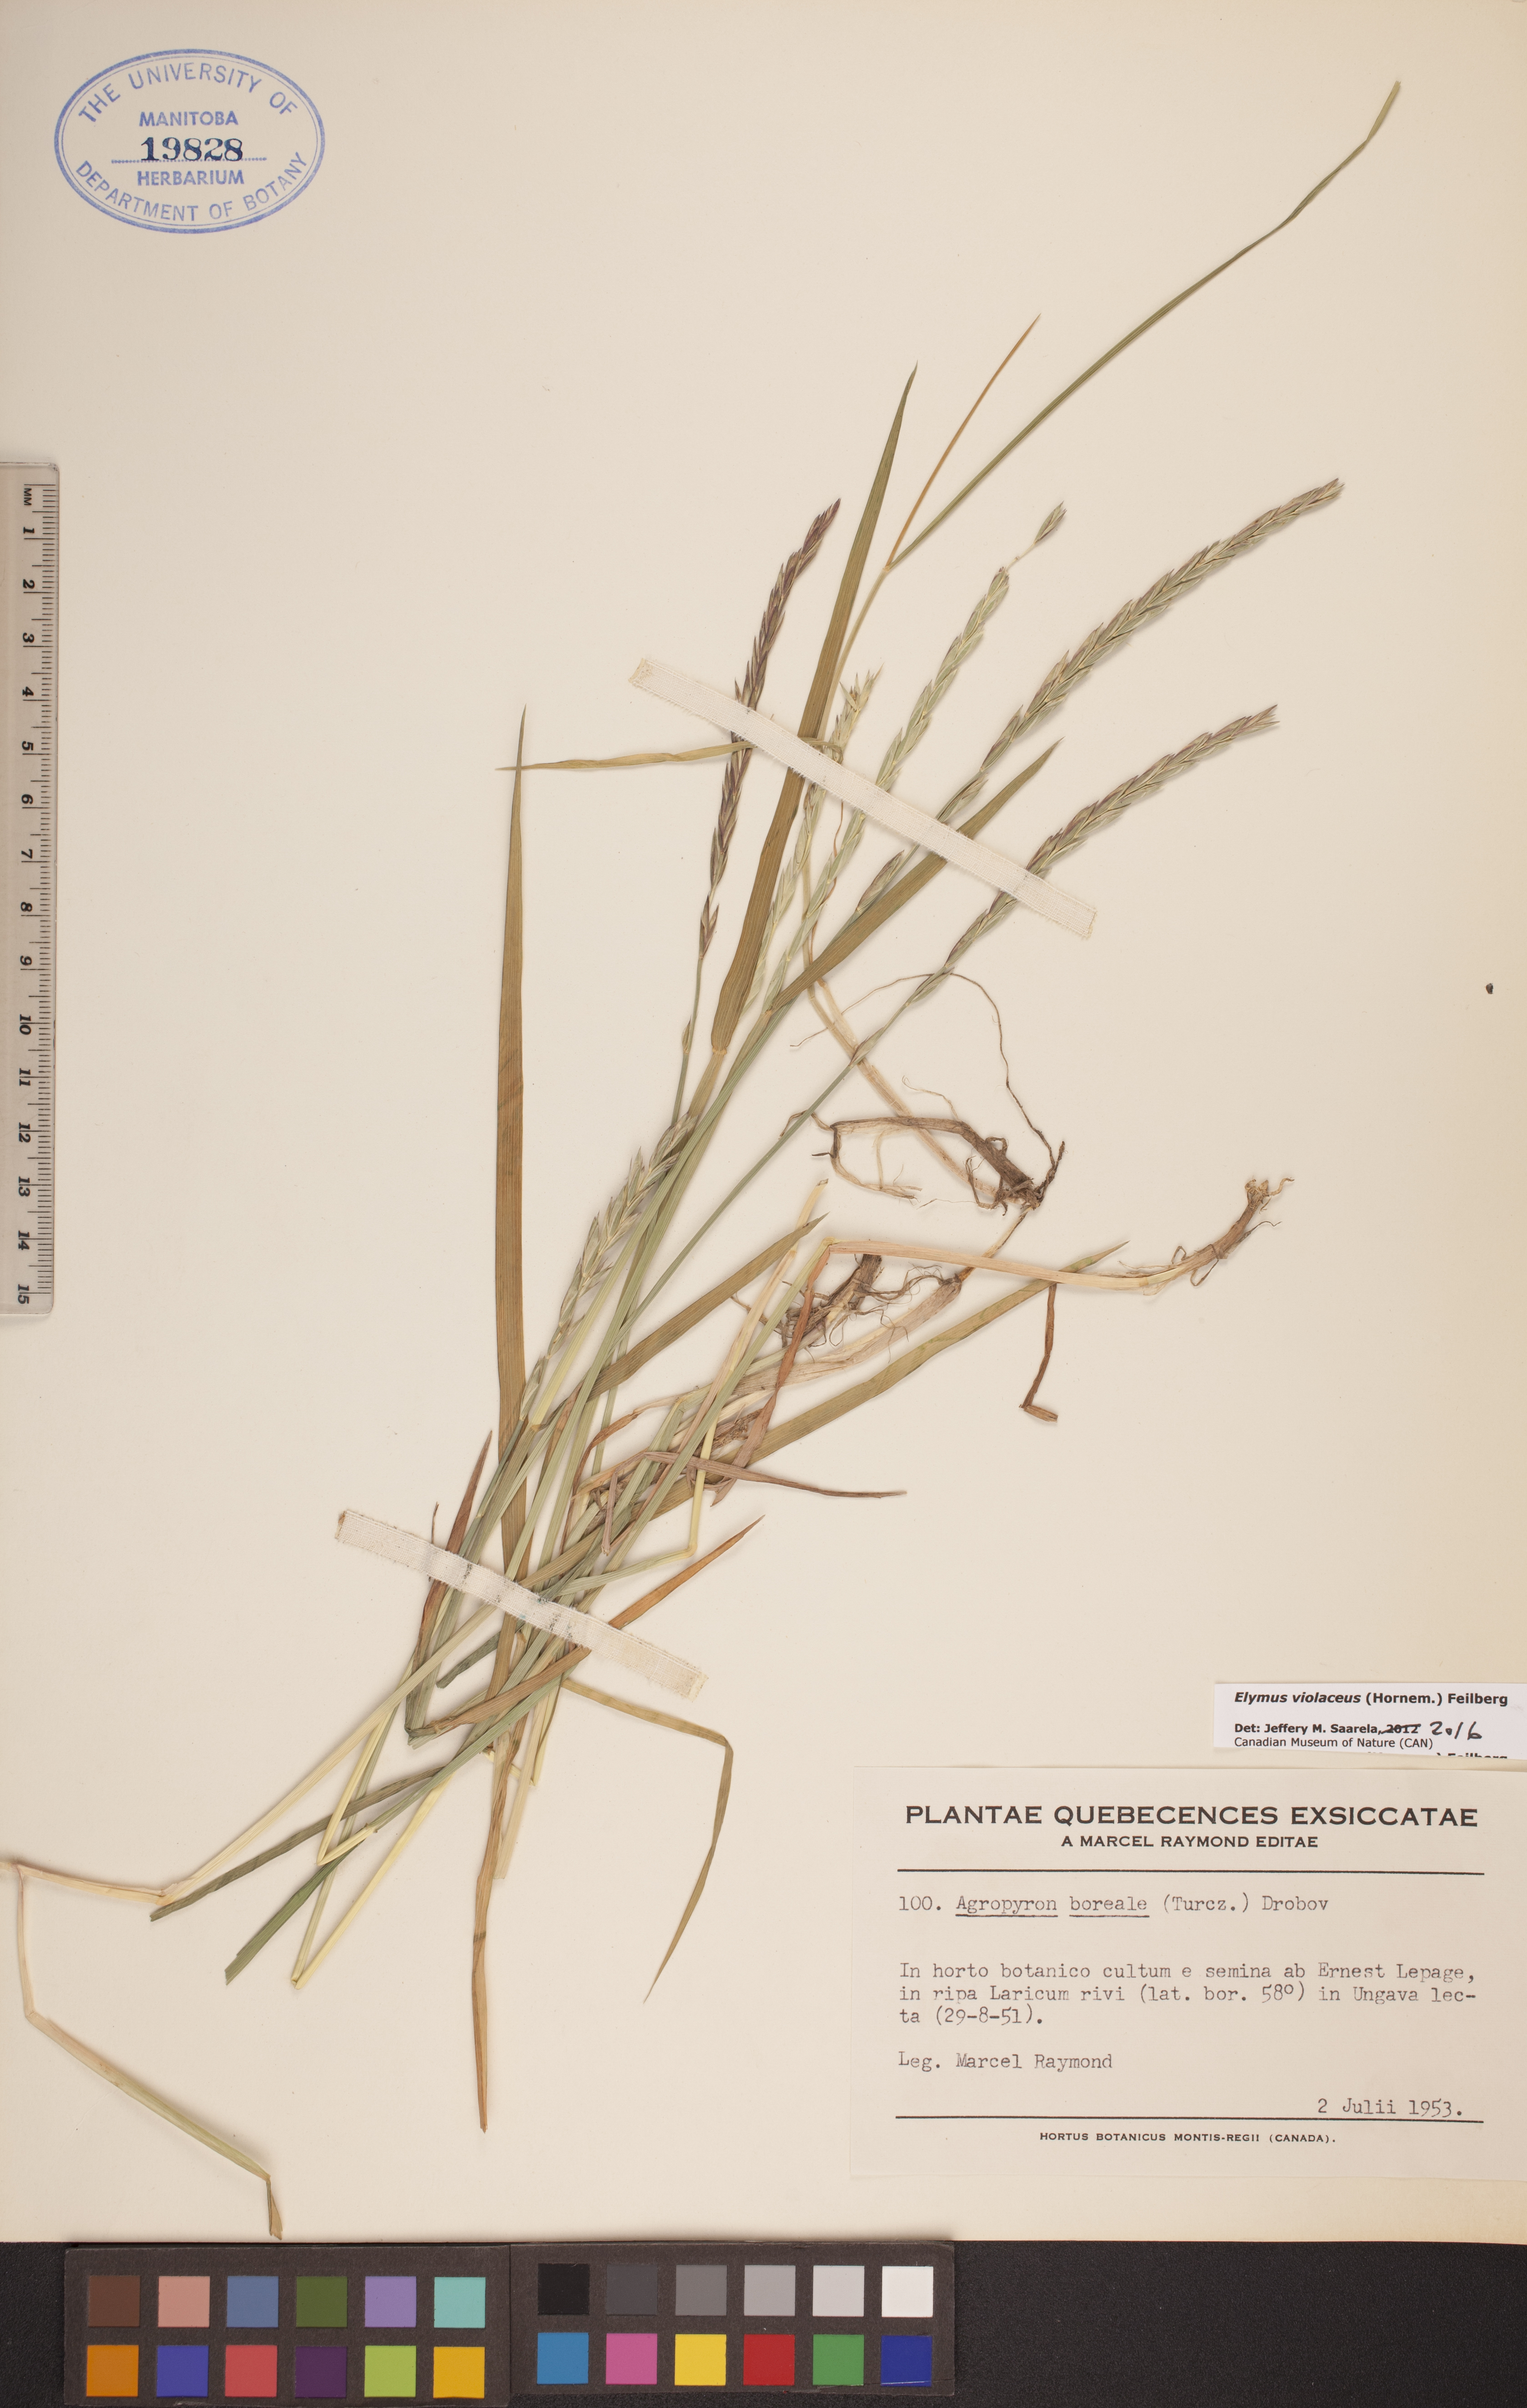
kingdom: Plantae
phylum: Tracheophyta
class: Liliopsida
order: Poales
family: Poaceae
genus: Elymus
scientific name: Elymus violaceus
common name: Arctic wheatgrass
